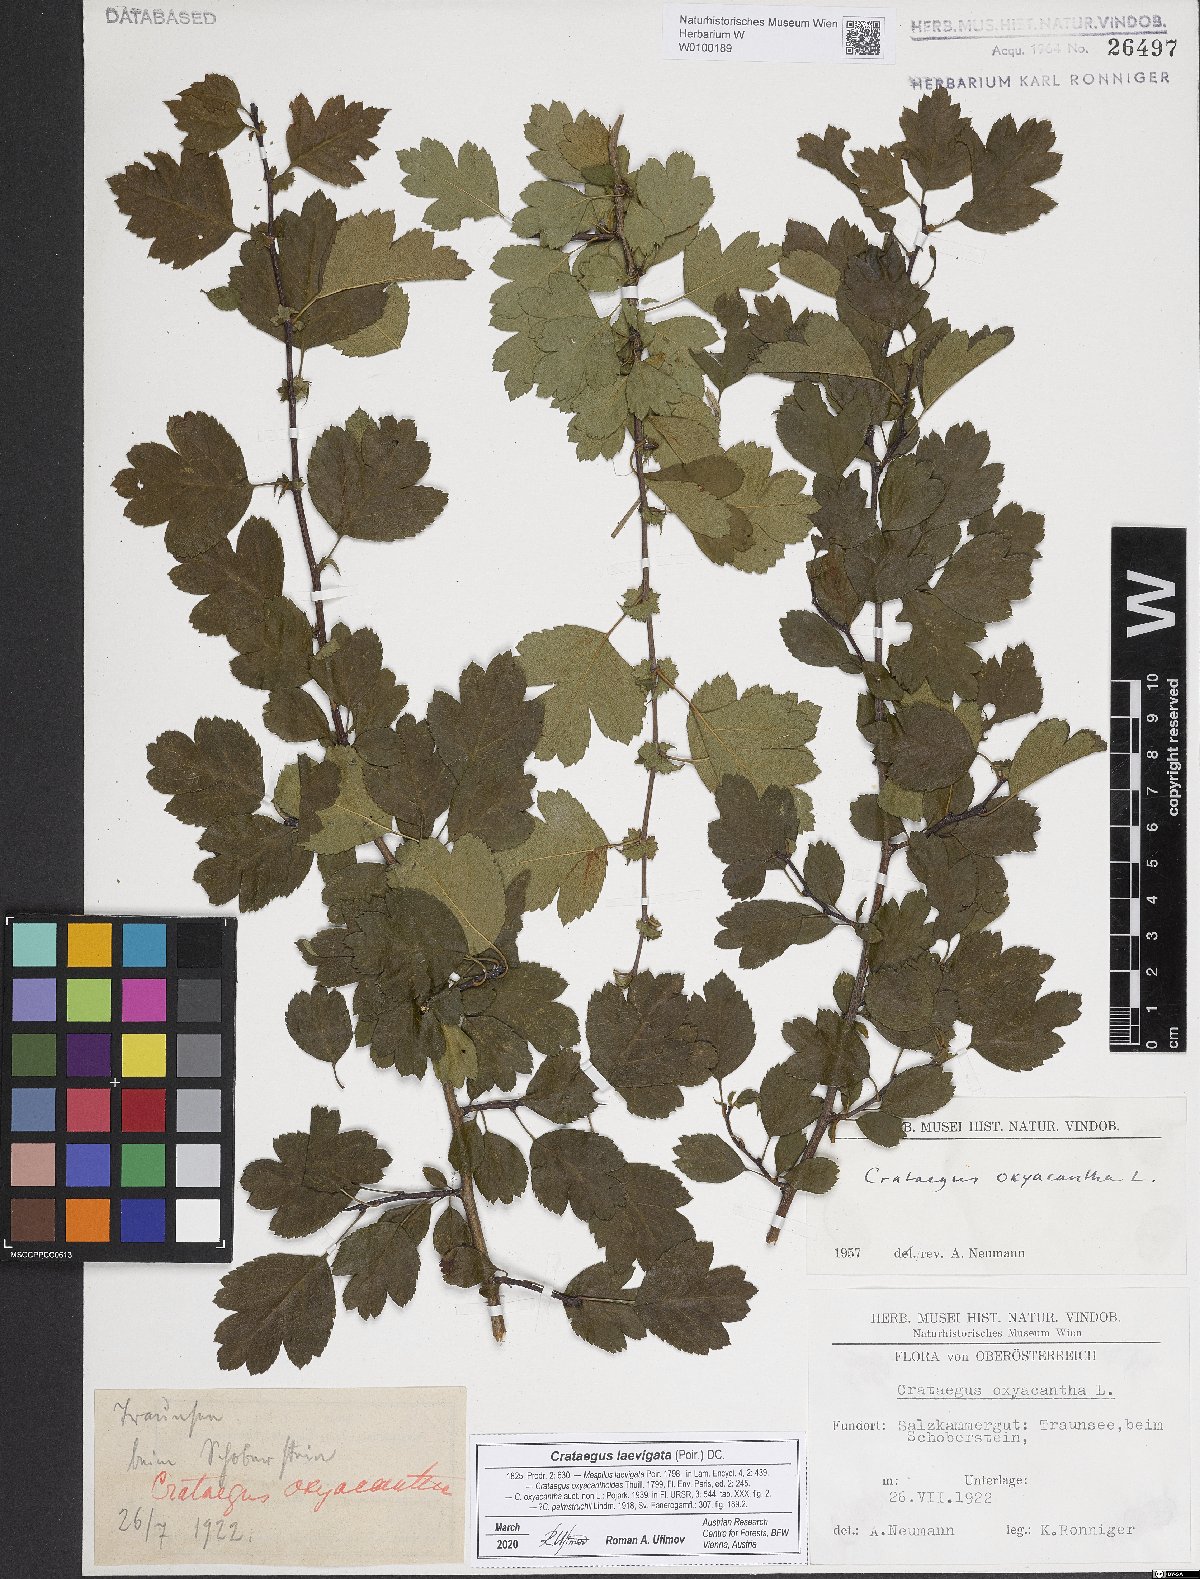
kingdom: Plantae
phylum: Tracheophyta
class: Magnoliopsida
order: Rosales
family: Rosaceae
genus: Crataegus
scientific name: Crataegus monogyna
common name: Hawthorn
